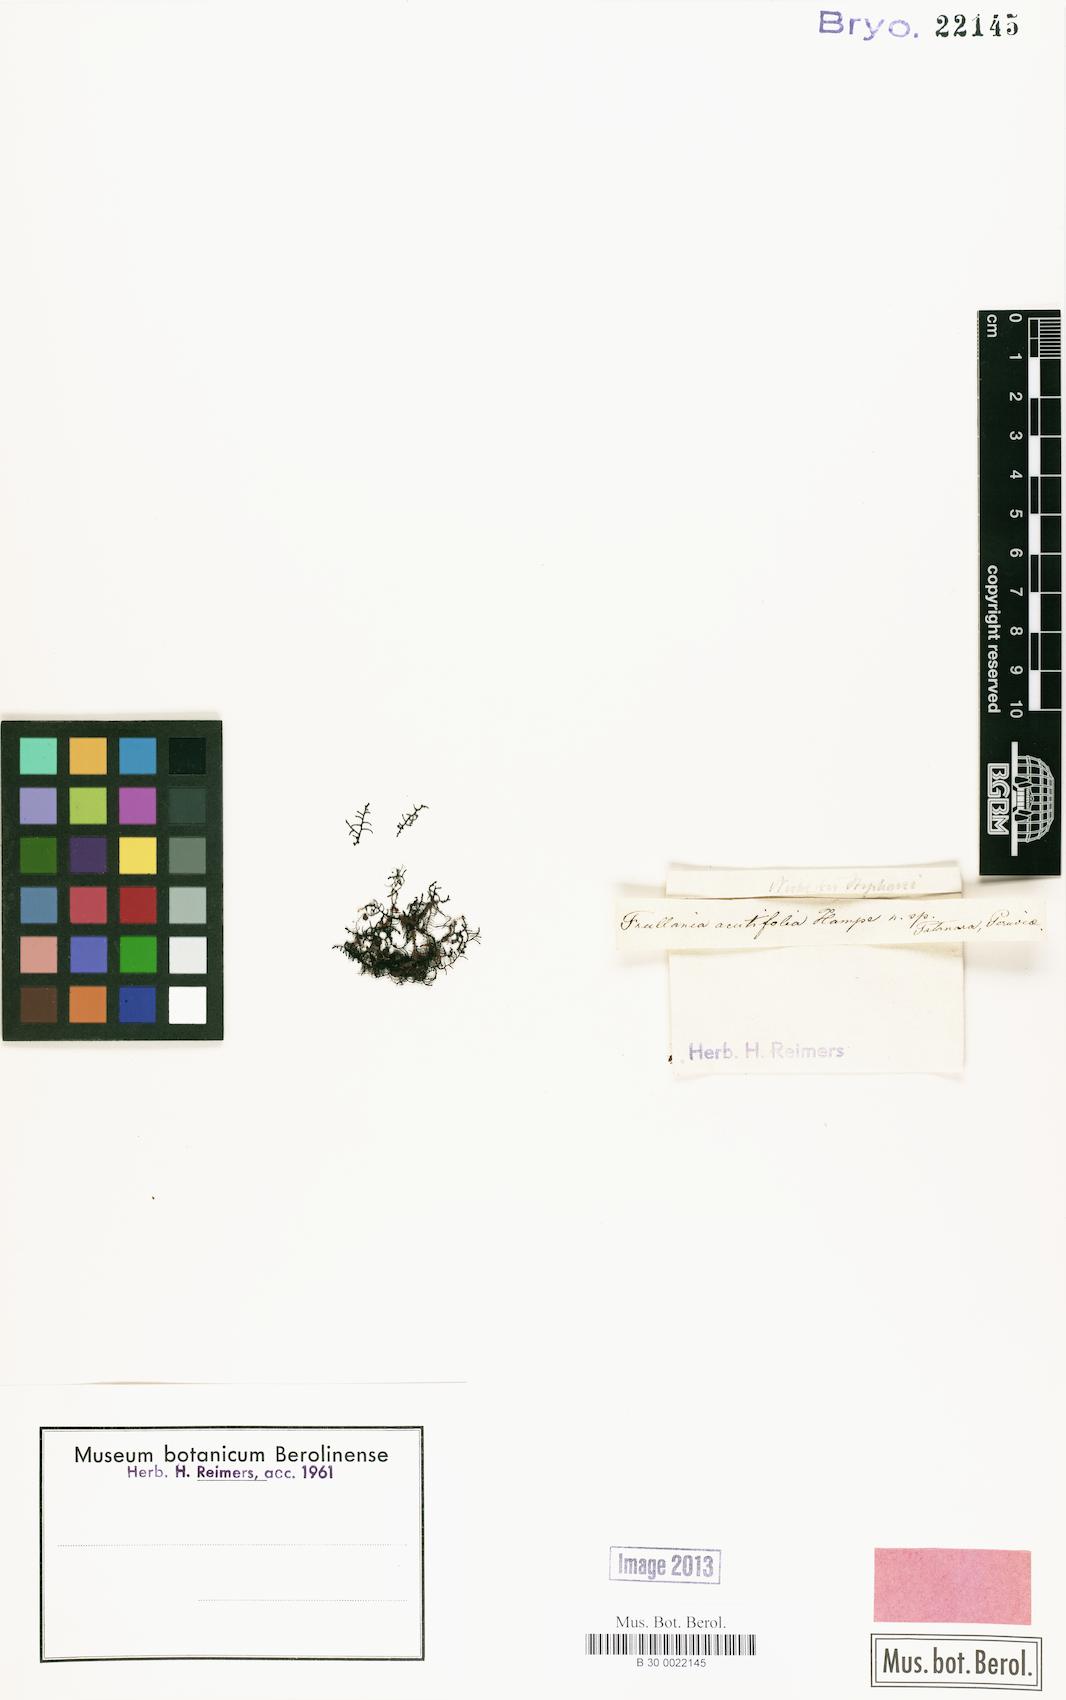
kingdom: Plantae
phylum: Marchantiophyta
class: Jungermanniopsida
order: Porellales
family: Frullaniaceae
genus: Frullania
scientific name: Frullania
